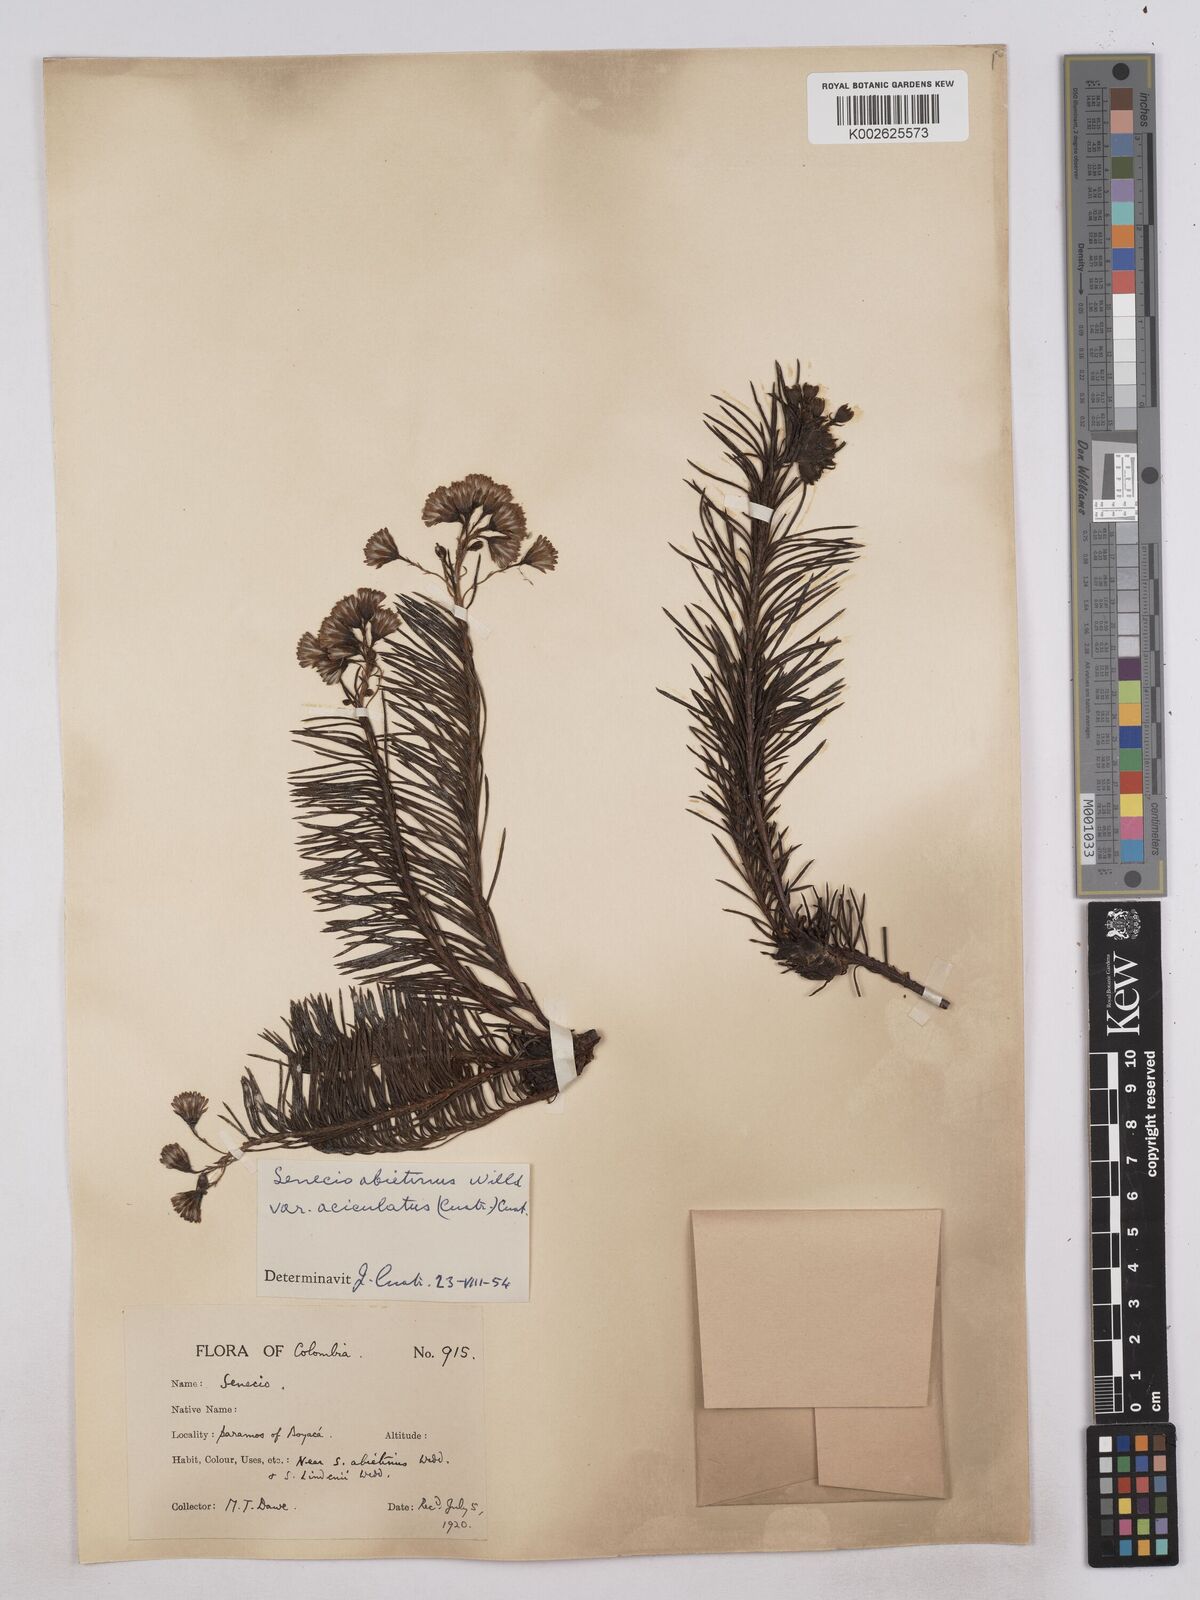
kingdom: Plantae
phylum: Tracheophyta
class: Magnoliopsida
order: Asterales
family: Asteraceae
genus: Monticalia
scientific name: Monticalia abietina
